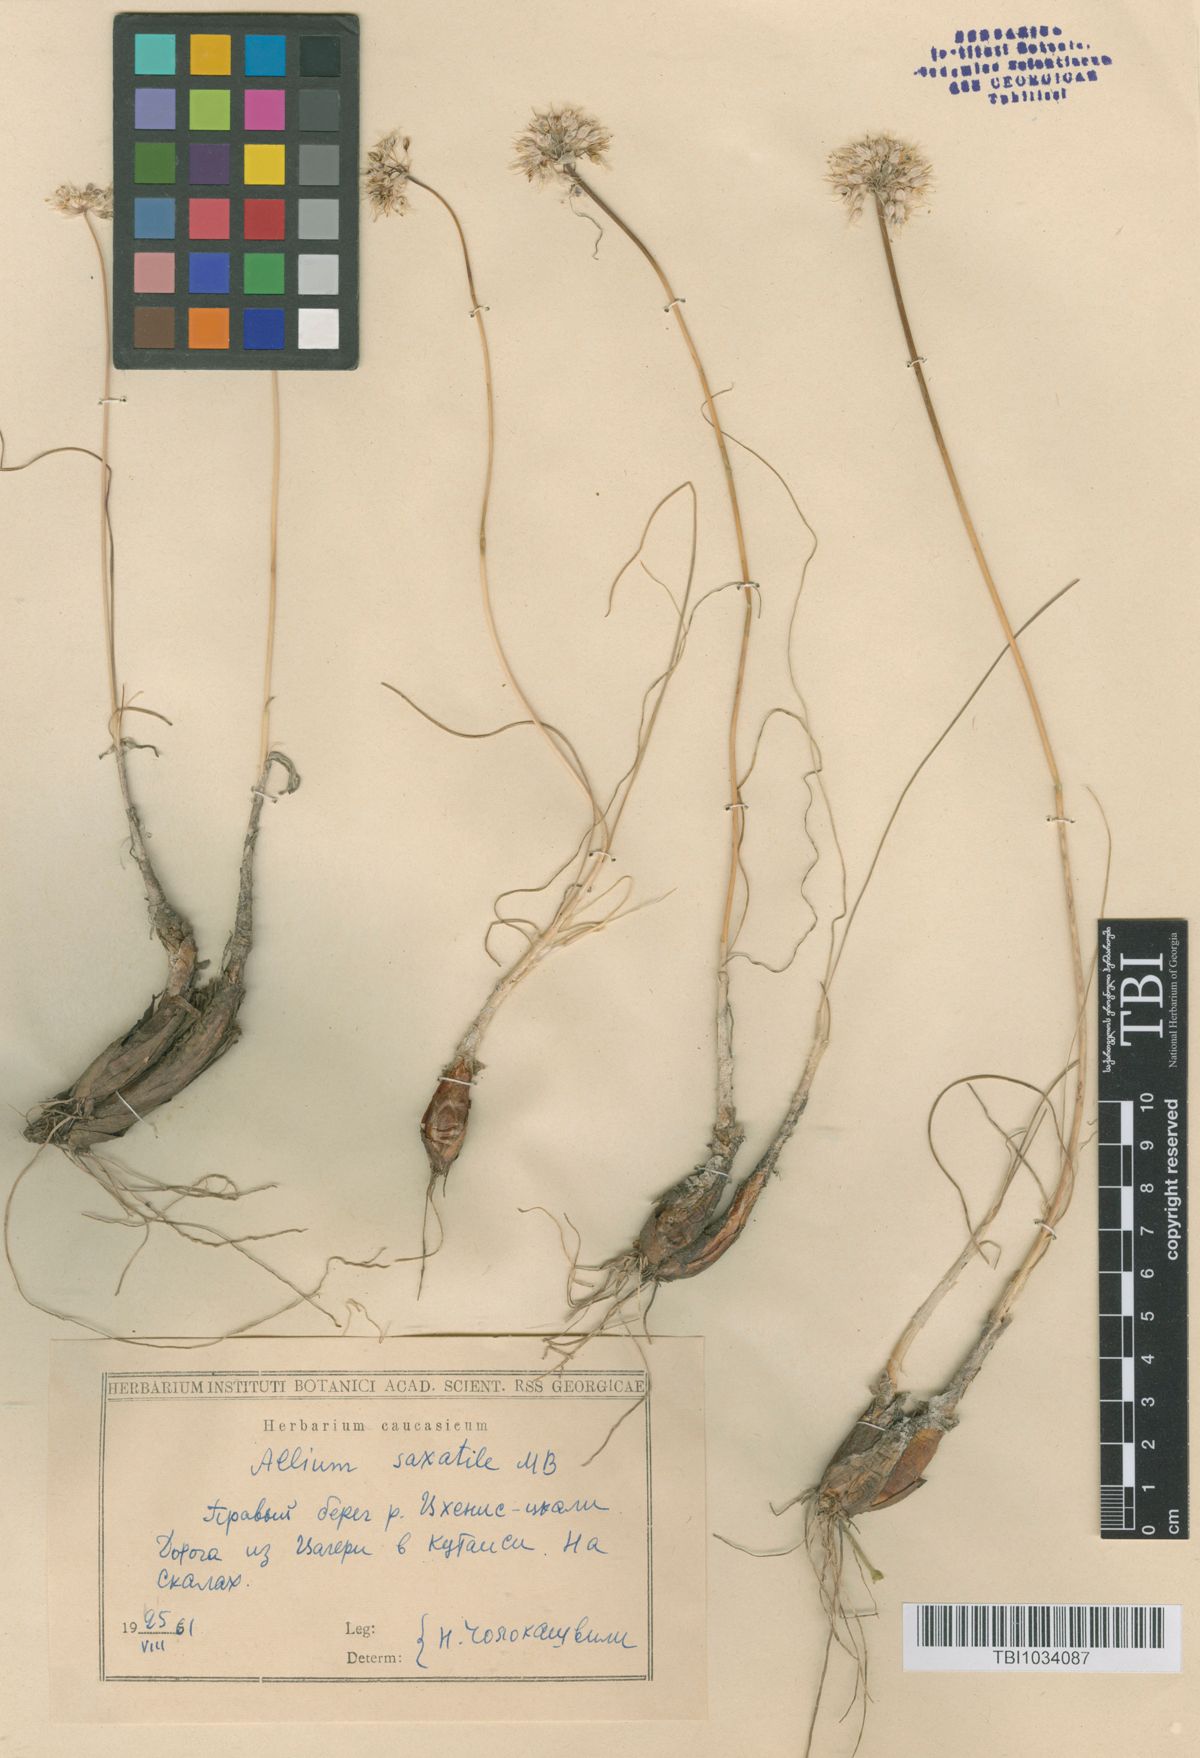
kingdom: Plantae
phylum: Tracheophyta
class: Liliopsida
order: Asparagales
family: Amaryllidaceae
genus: Allium
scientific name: Allium saxatile
